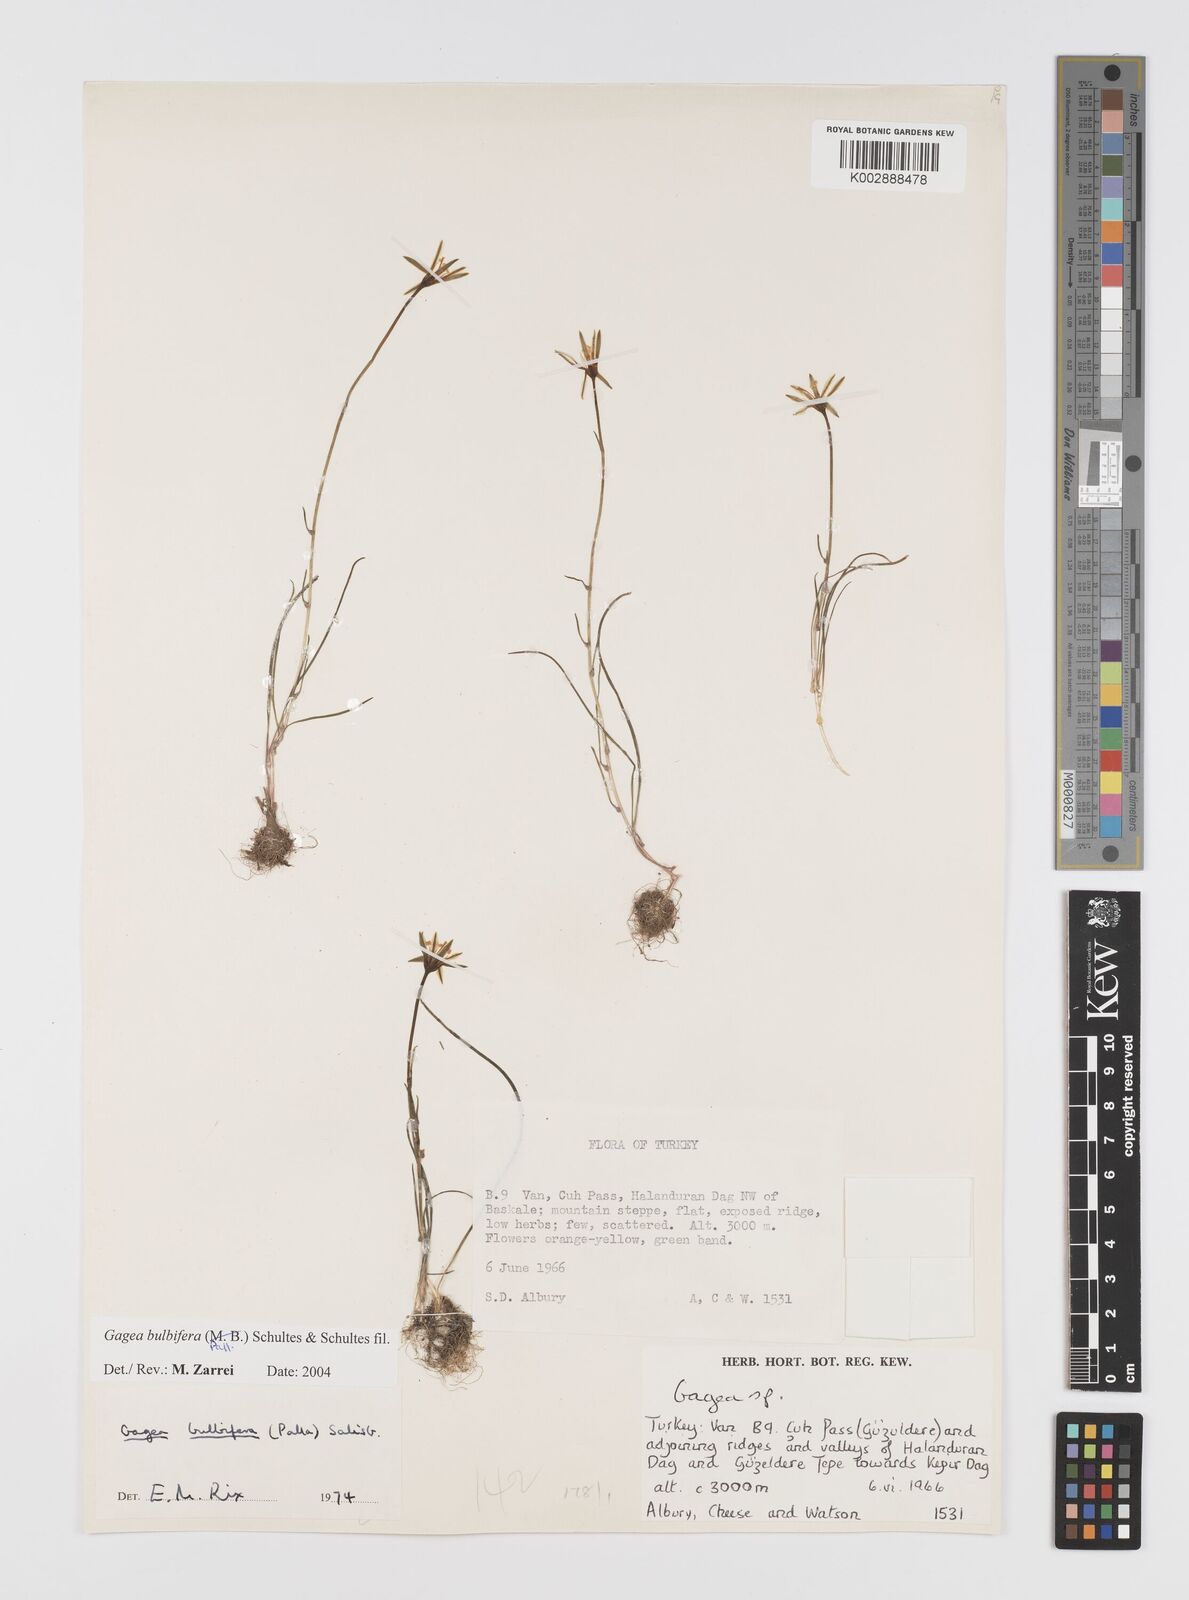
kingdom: Plantae
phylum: Tracheophyta
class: Liliopsida
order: Liliales
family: Liliaceae
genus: Gagea
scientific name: Gagea bulbifera
